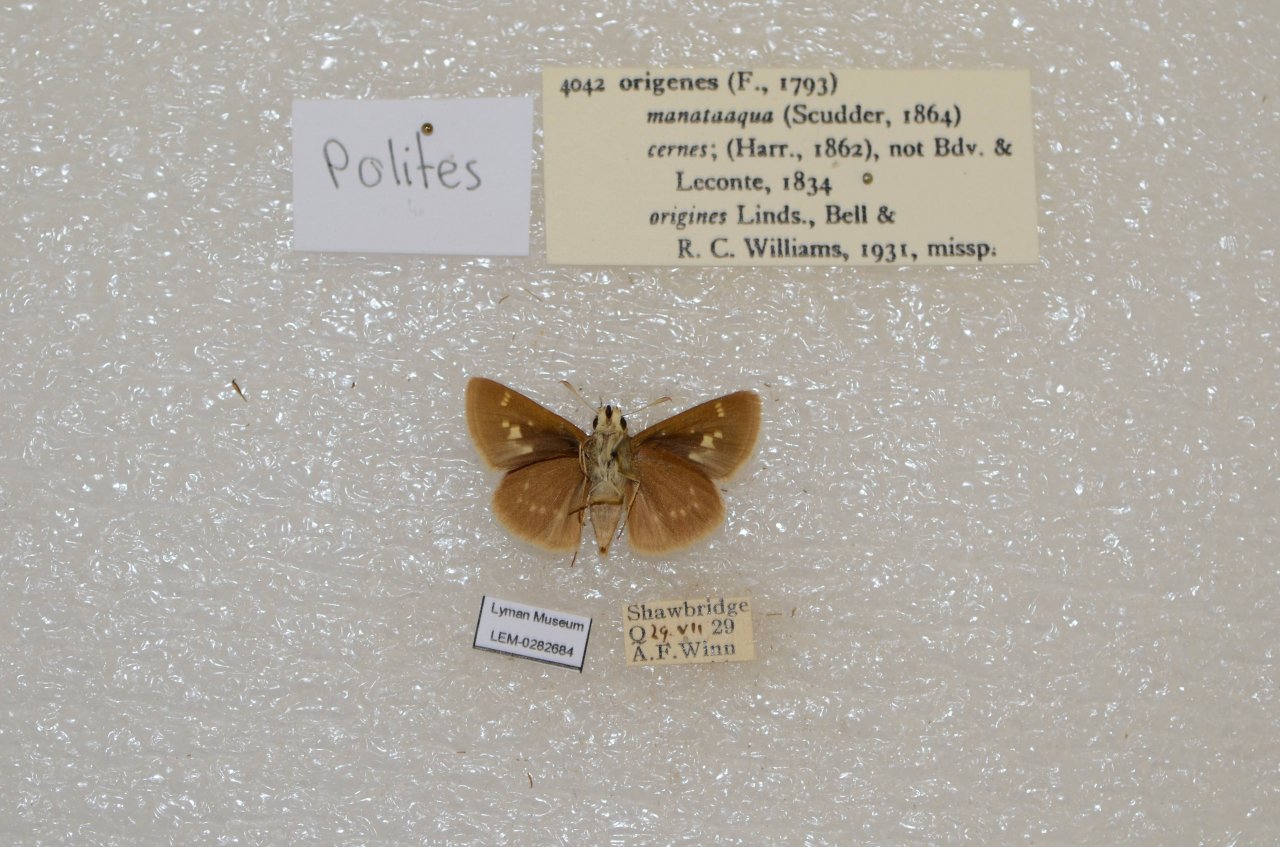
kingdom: Animalia
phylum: Arthropoda
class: Insecta
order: Lepidoptera
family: Hesperiidae
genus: Polites
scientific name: Polites
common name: Crossline Skipper
